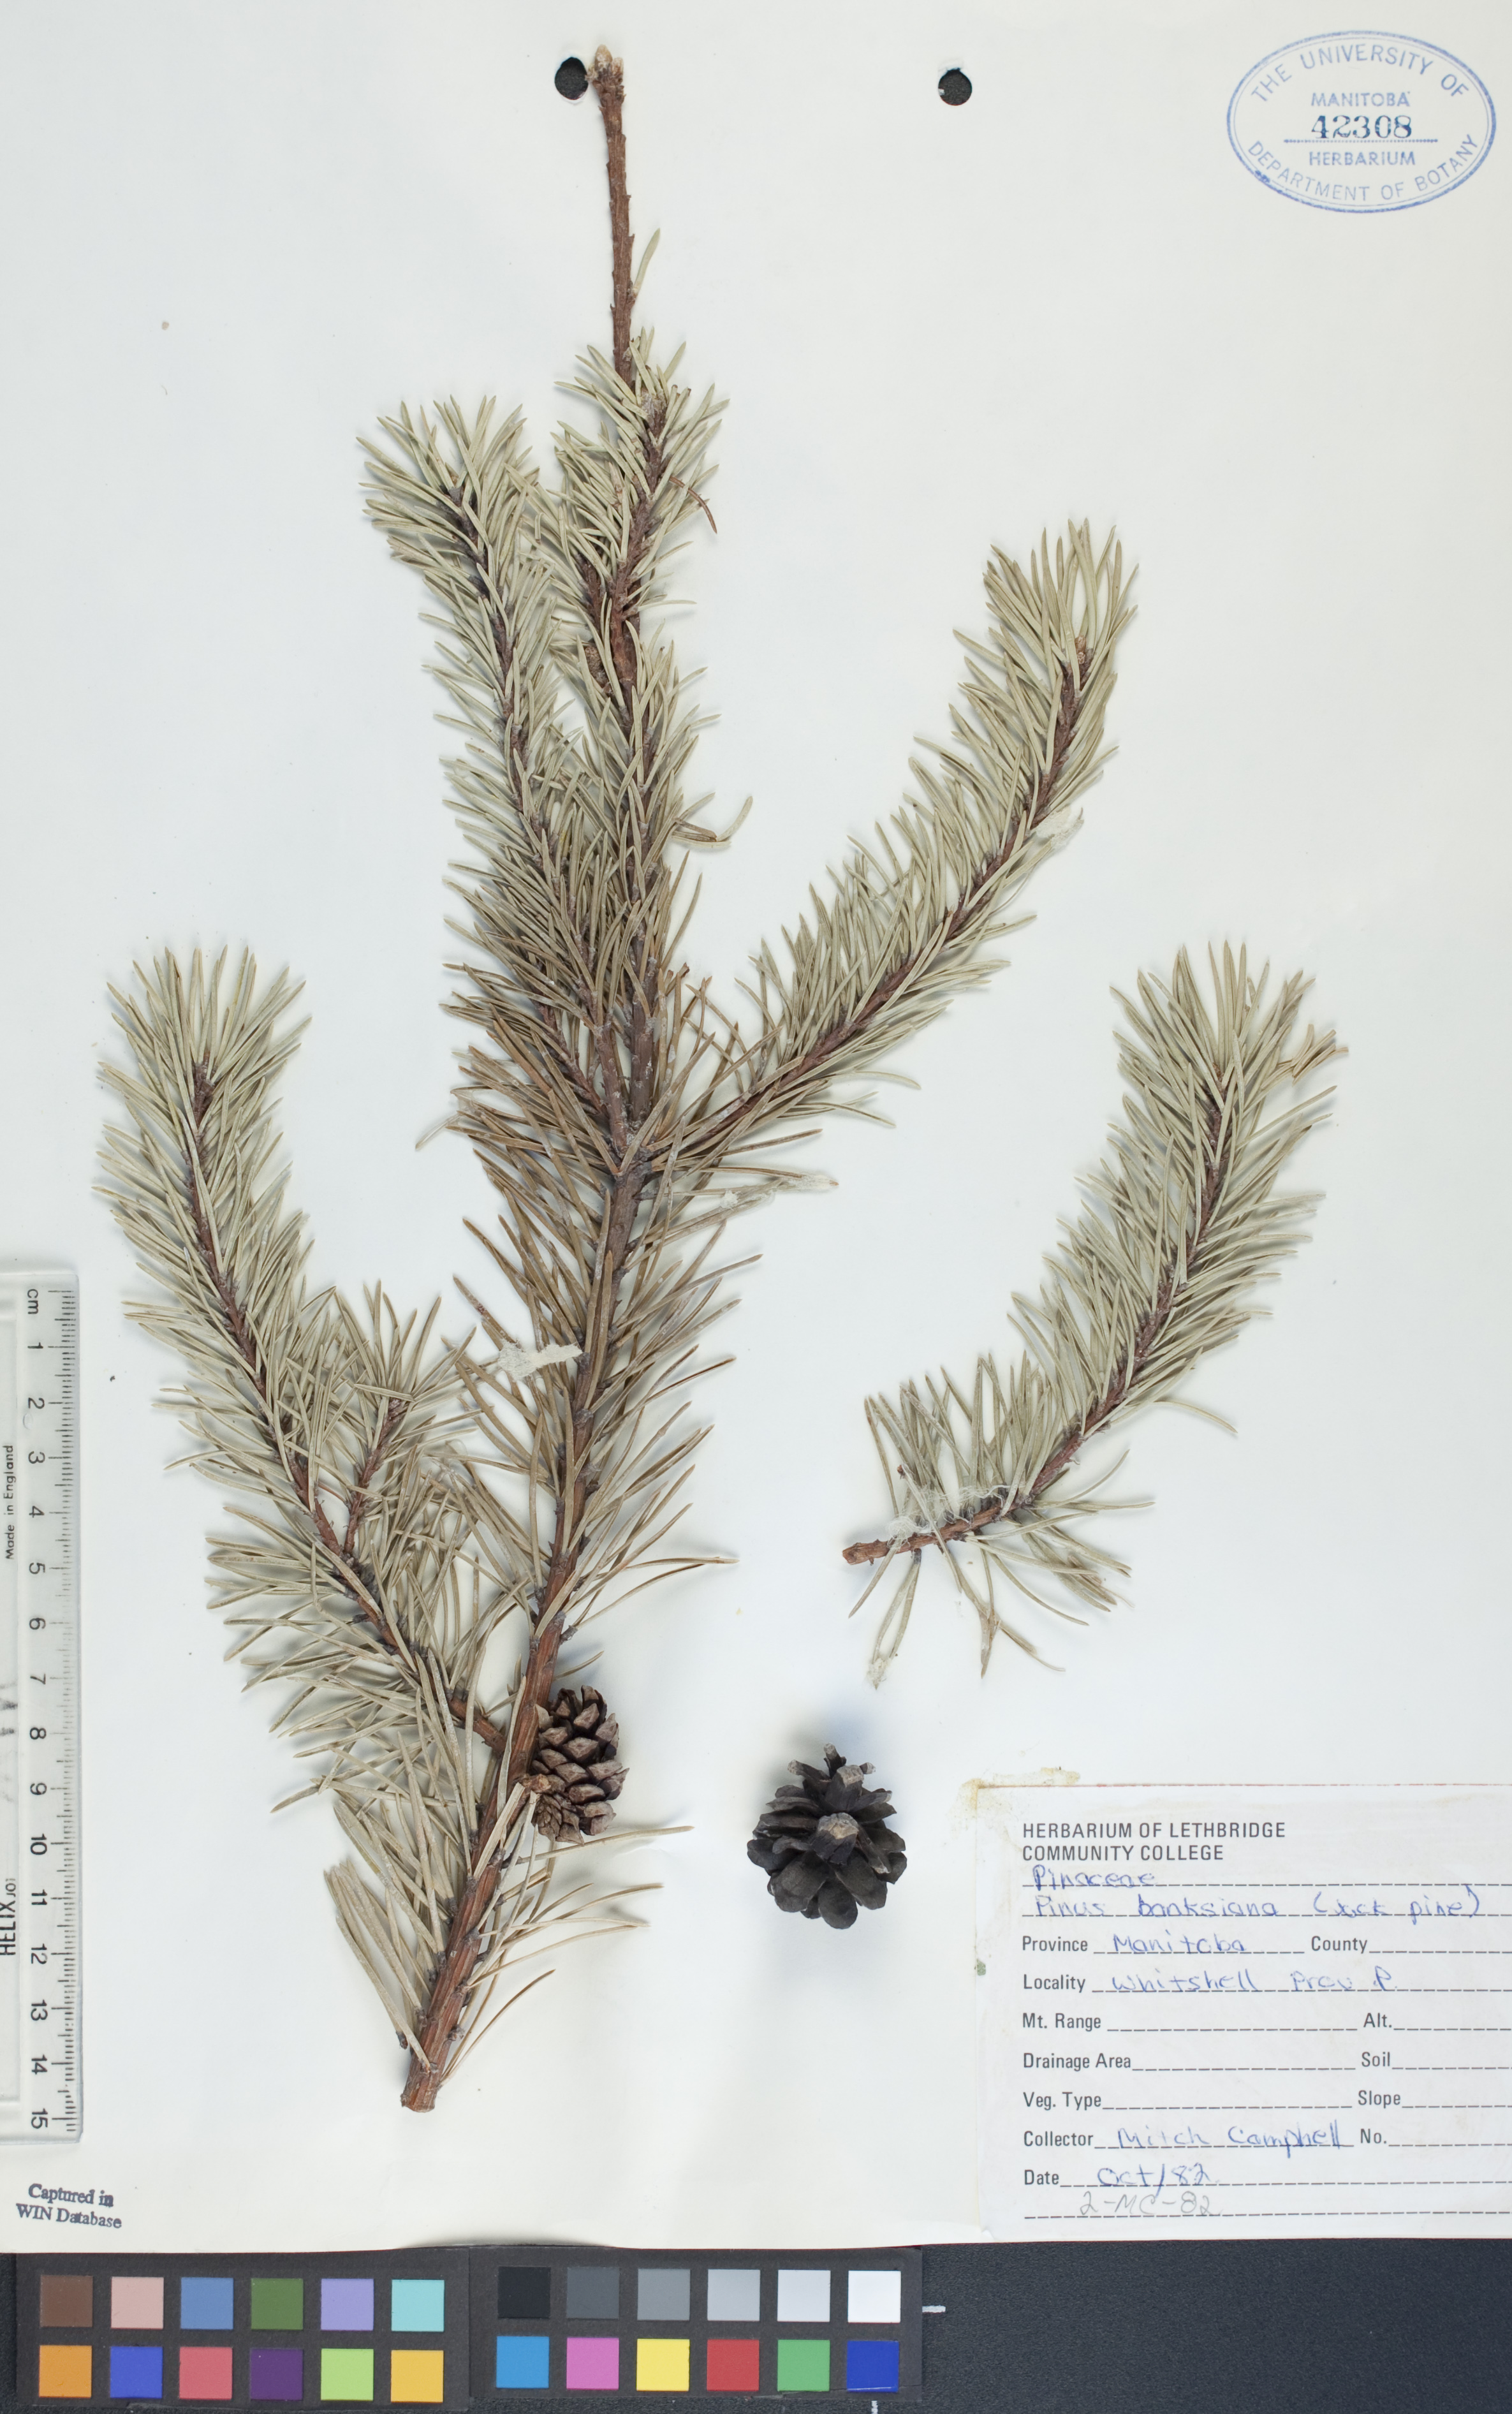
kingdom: Plantae
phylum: Tracheophyta
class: Pinopsida
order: Pinales
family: Pinaceae
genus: Pinus
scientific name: Pinus banksiana
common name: Jack pine
